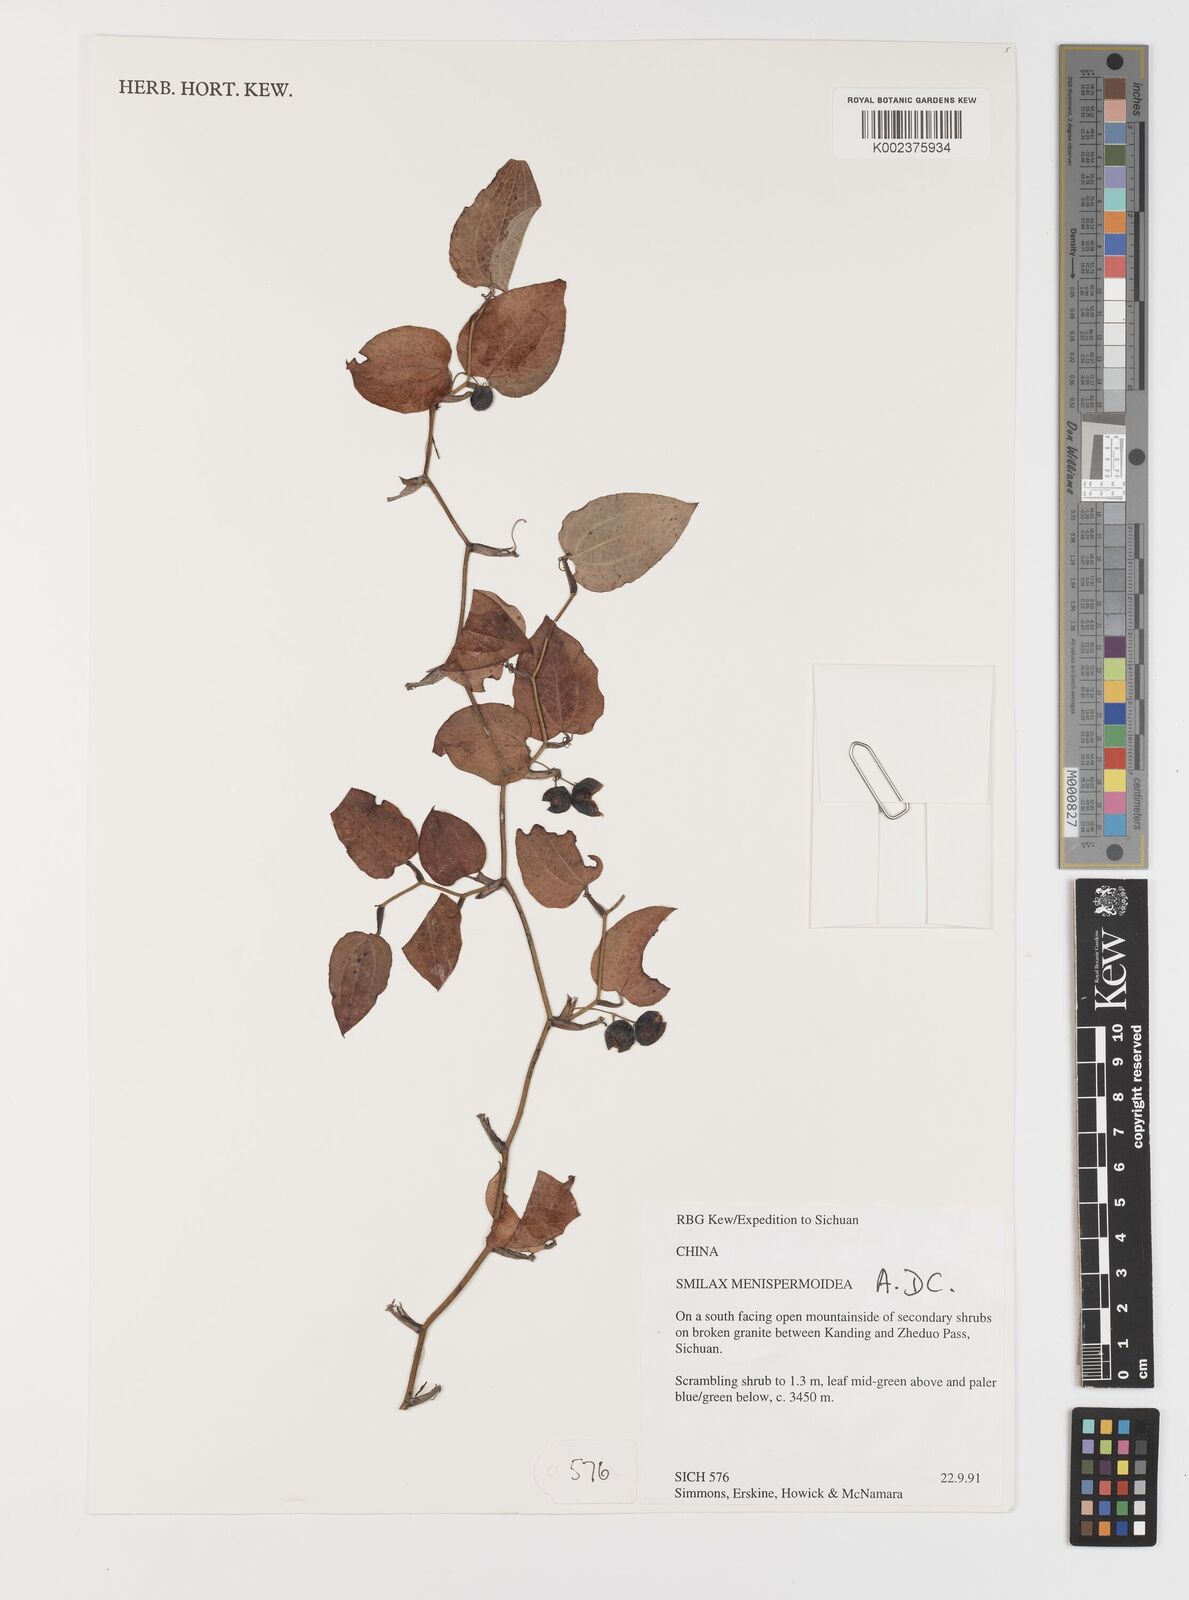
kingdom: Plantae
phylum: Tracheophyta
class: Liliopsida
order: Liliales
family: Smilacaceae
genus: Smilax
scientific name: Smilax menispermoidea
